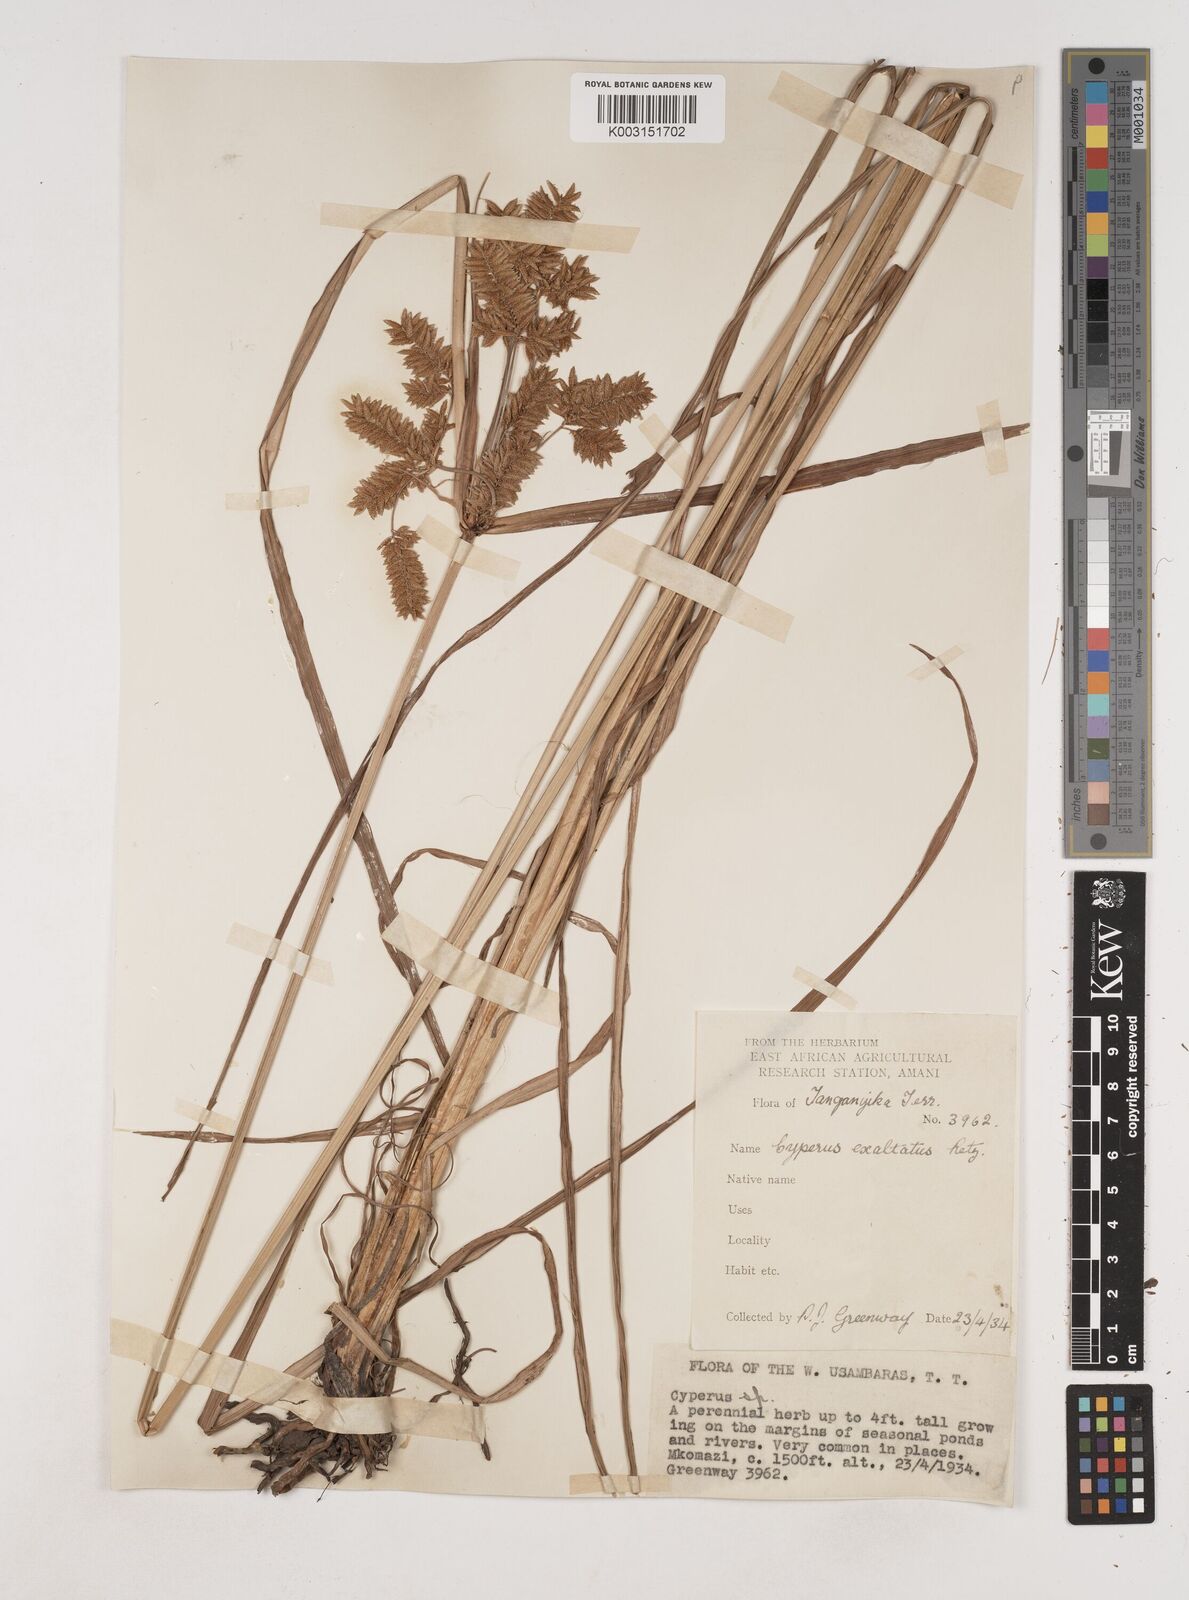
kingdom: Plantae
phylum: Tracheophyta
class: Liliopsida
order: Poales
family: Cyperaceae
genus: Cyperus
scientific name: Cyperus exaltatus
